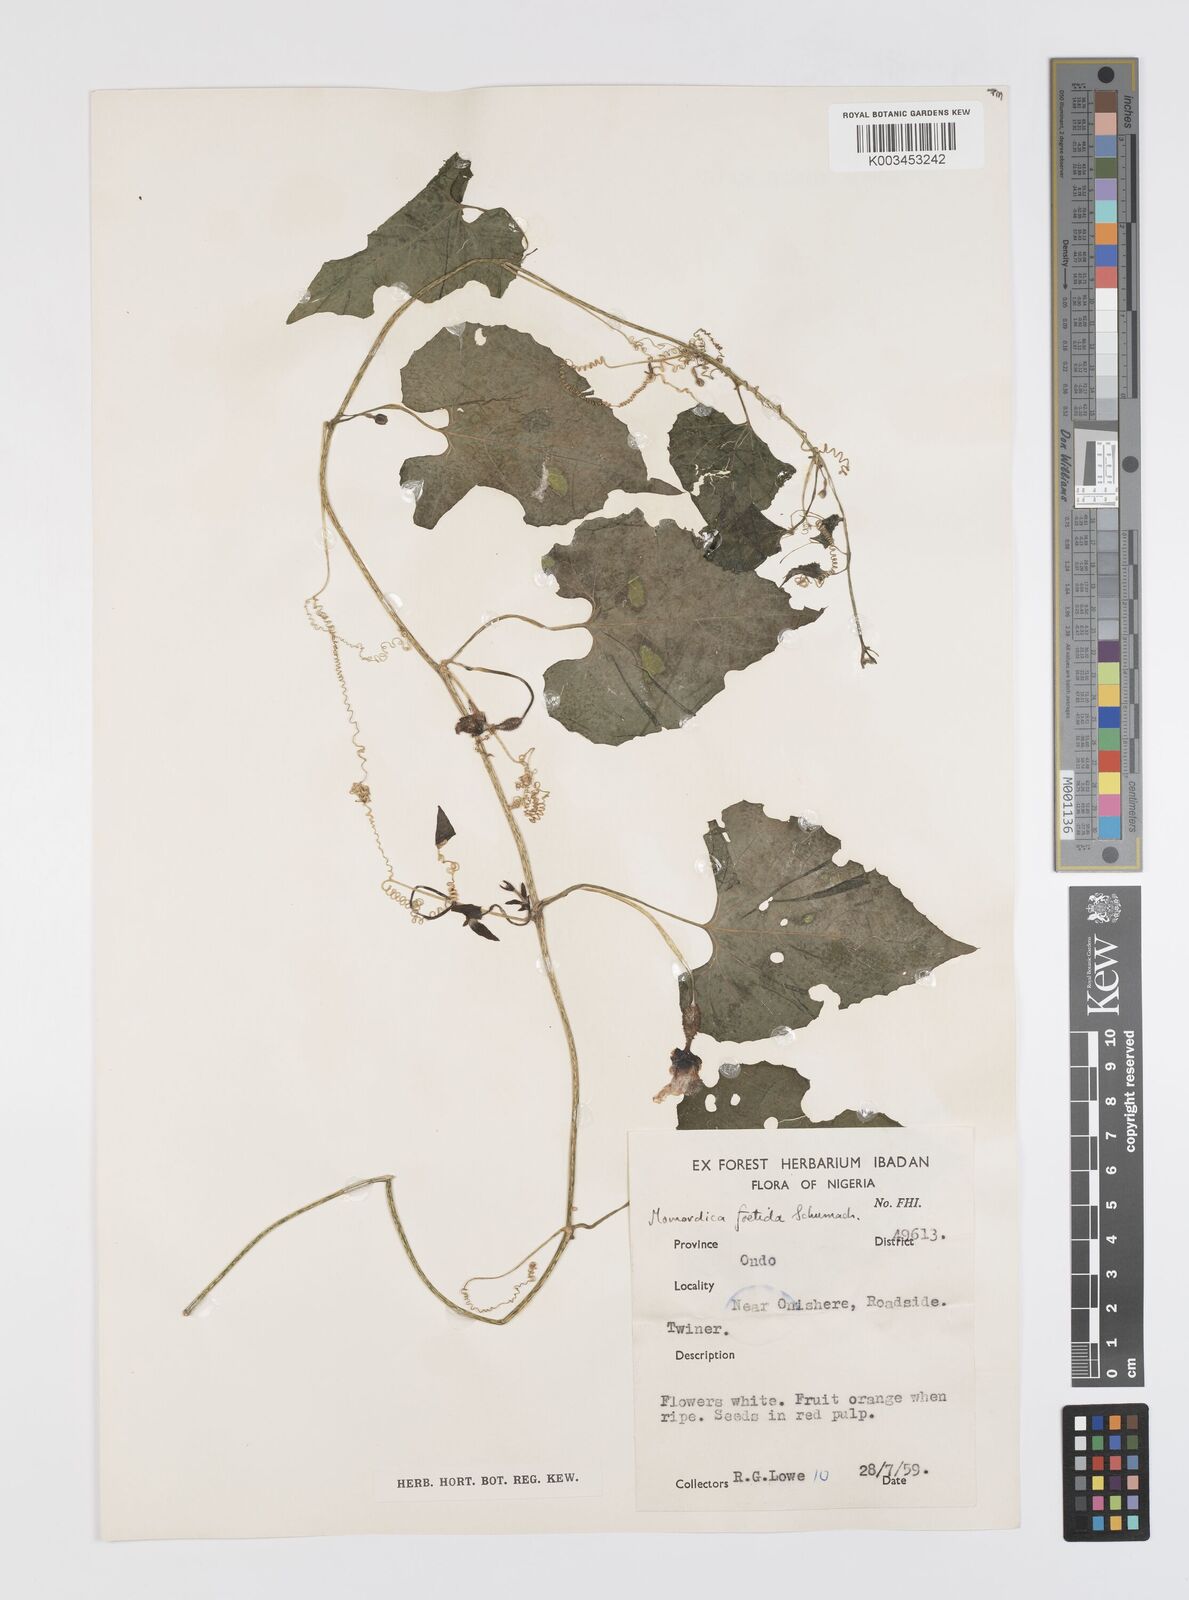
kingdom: Plantae
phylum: Tracheophyta
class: Magnoliopsida
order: Cucurbitales
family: Cucurbitaceae
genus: Momordica
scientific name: Momordica foetida
